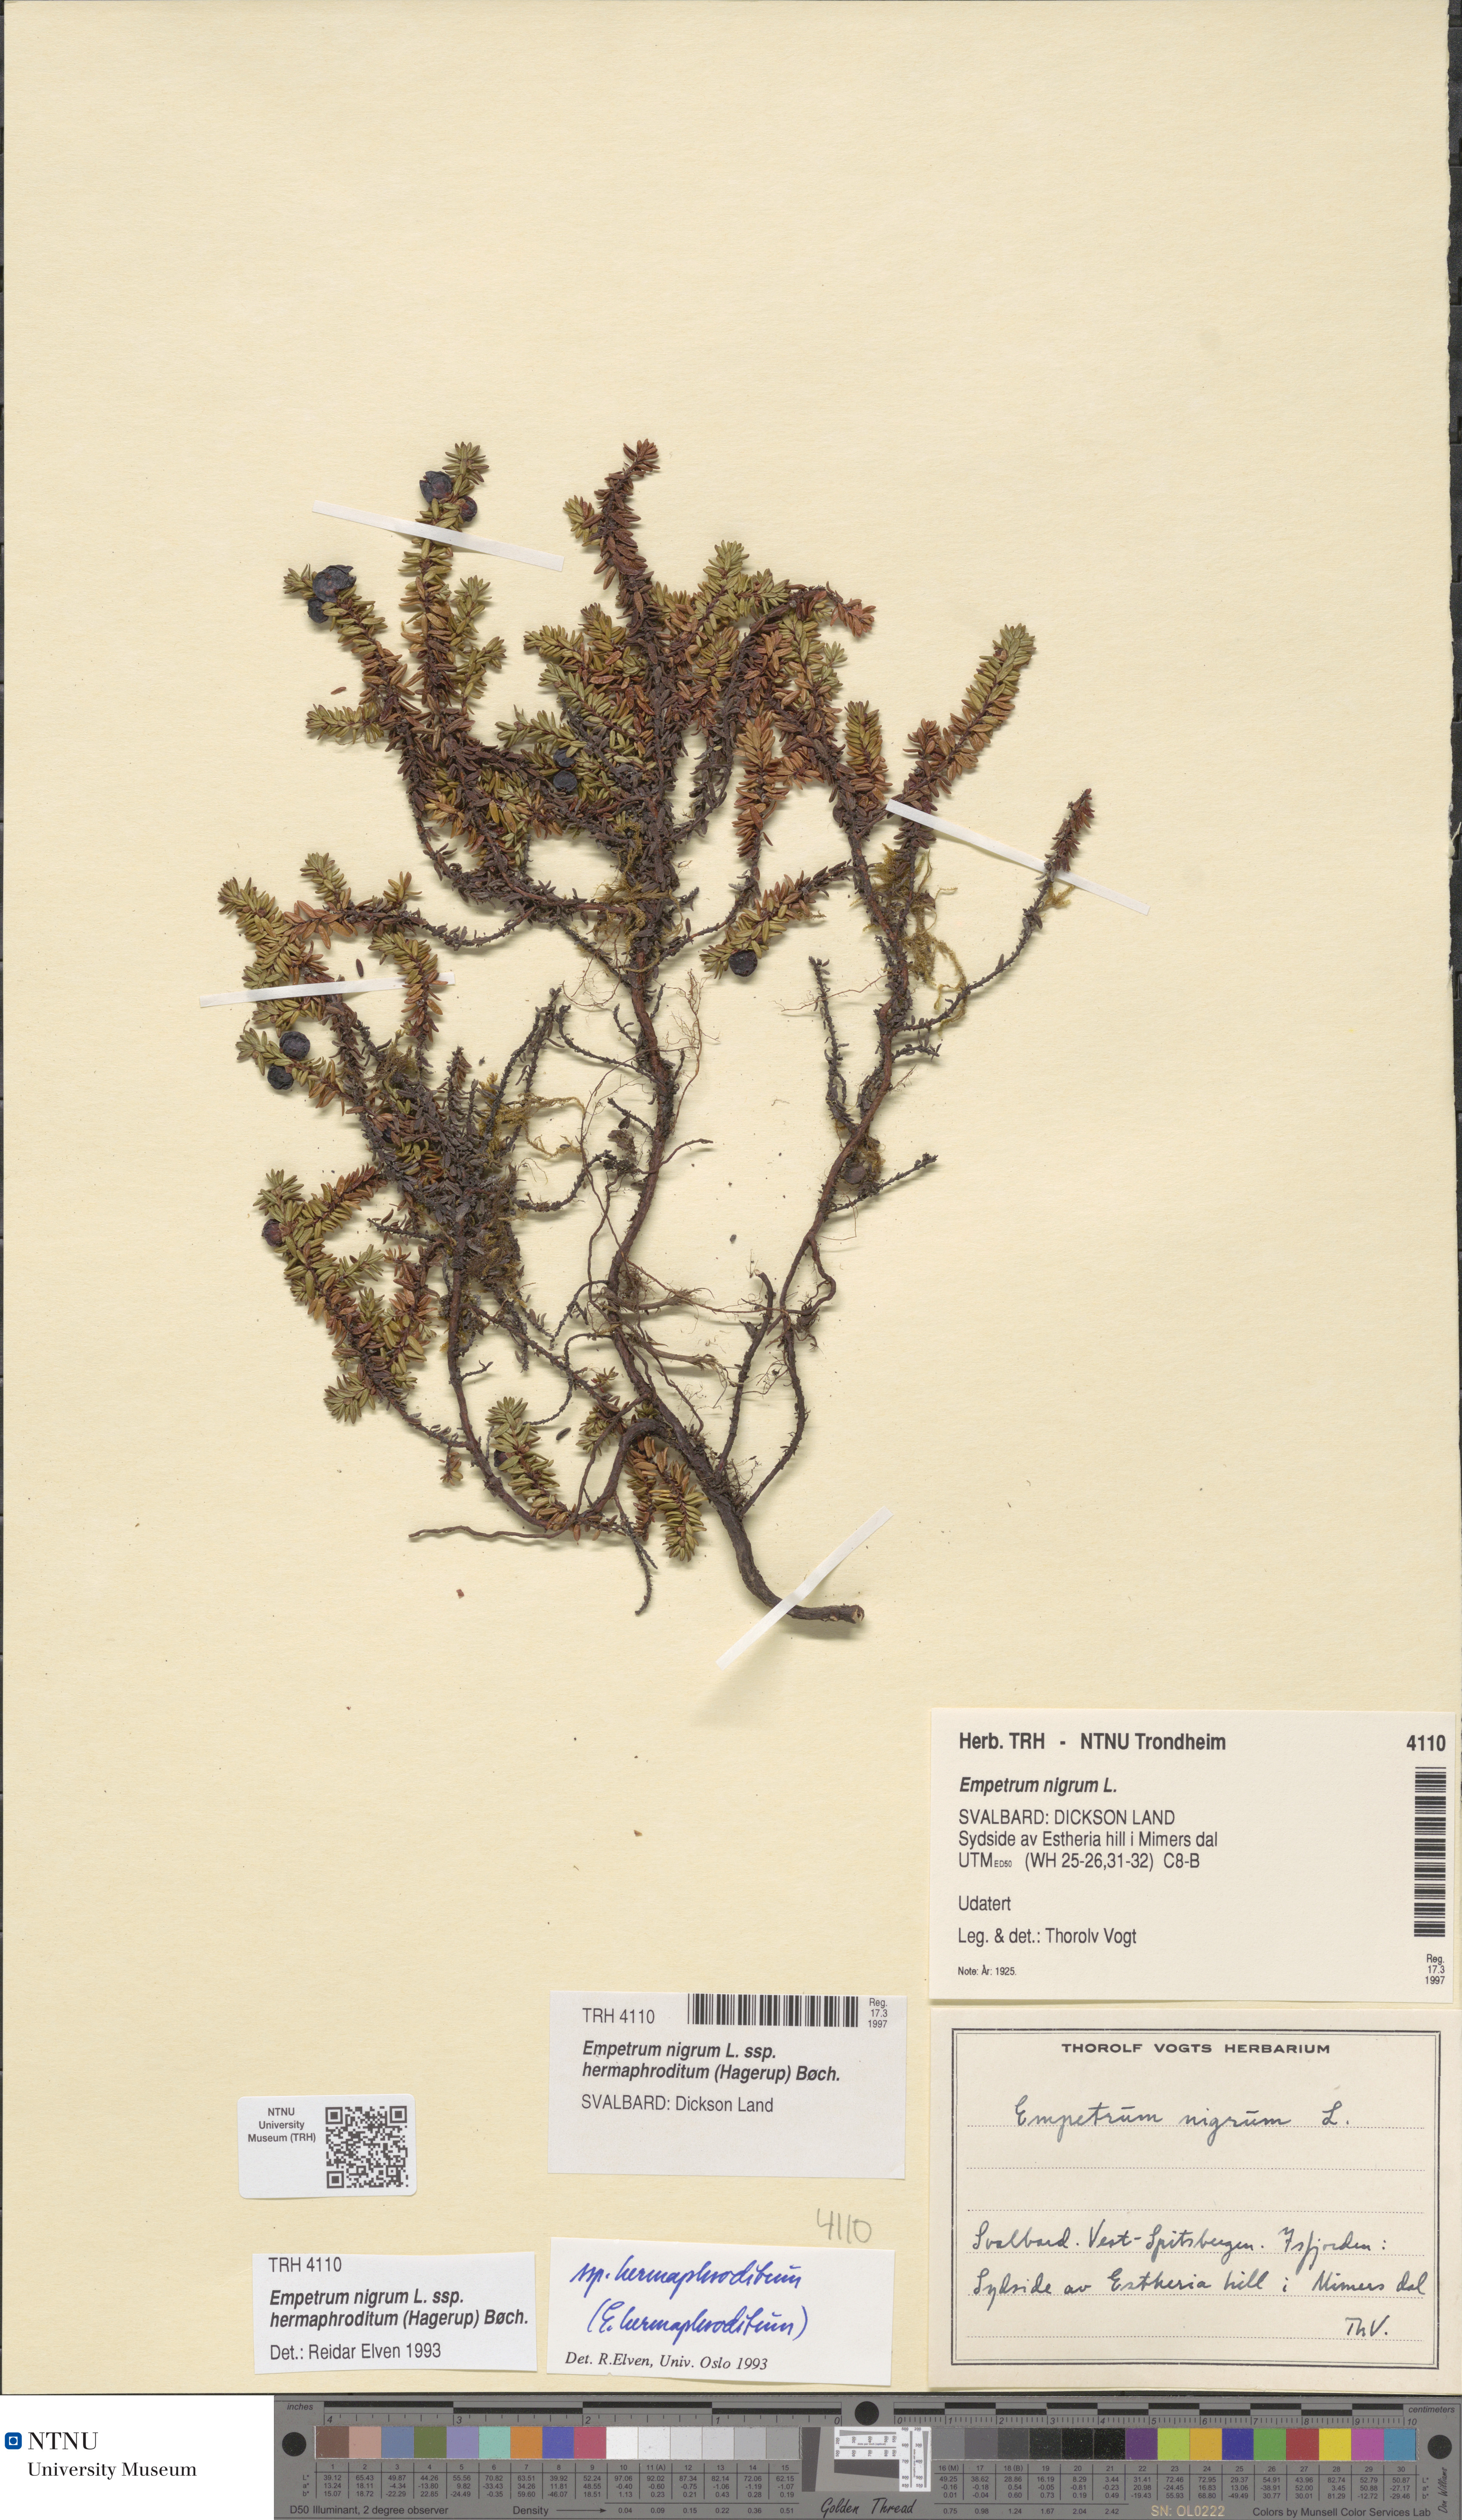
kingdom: Plantae
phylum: Tracheophyta
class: Magnoliopsida
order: Ericales
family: Ericaceae
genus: Empetrum
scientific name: Empetrum hermaphroditum
